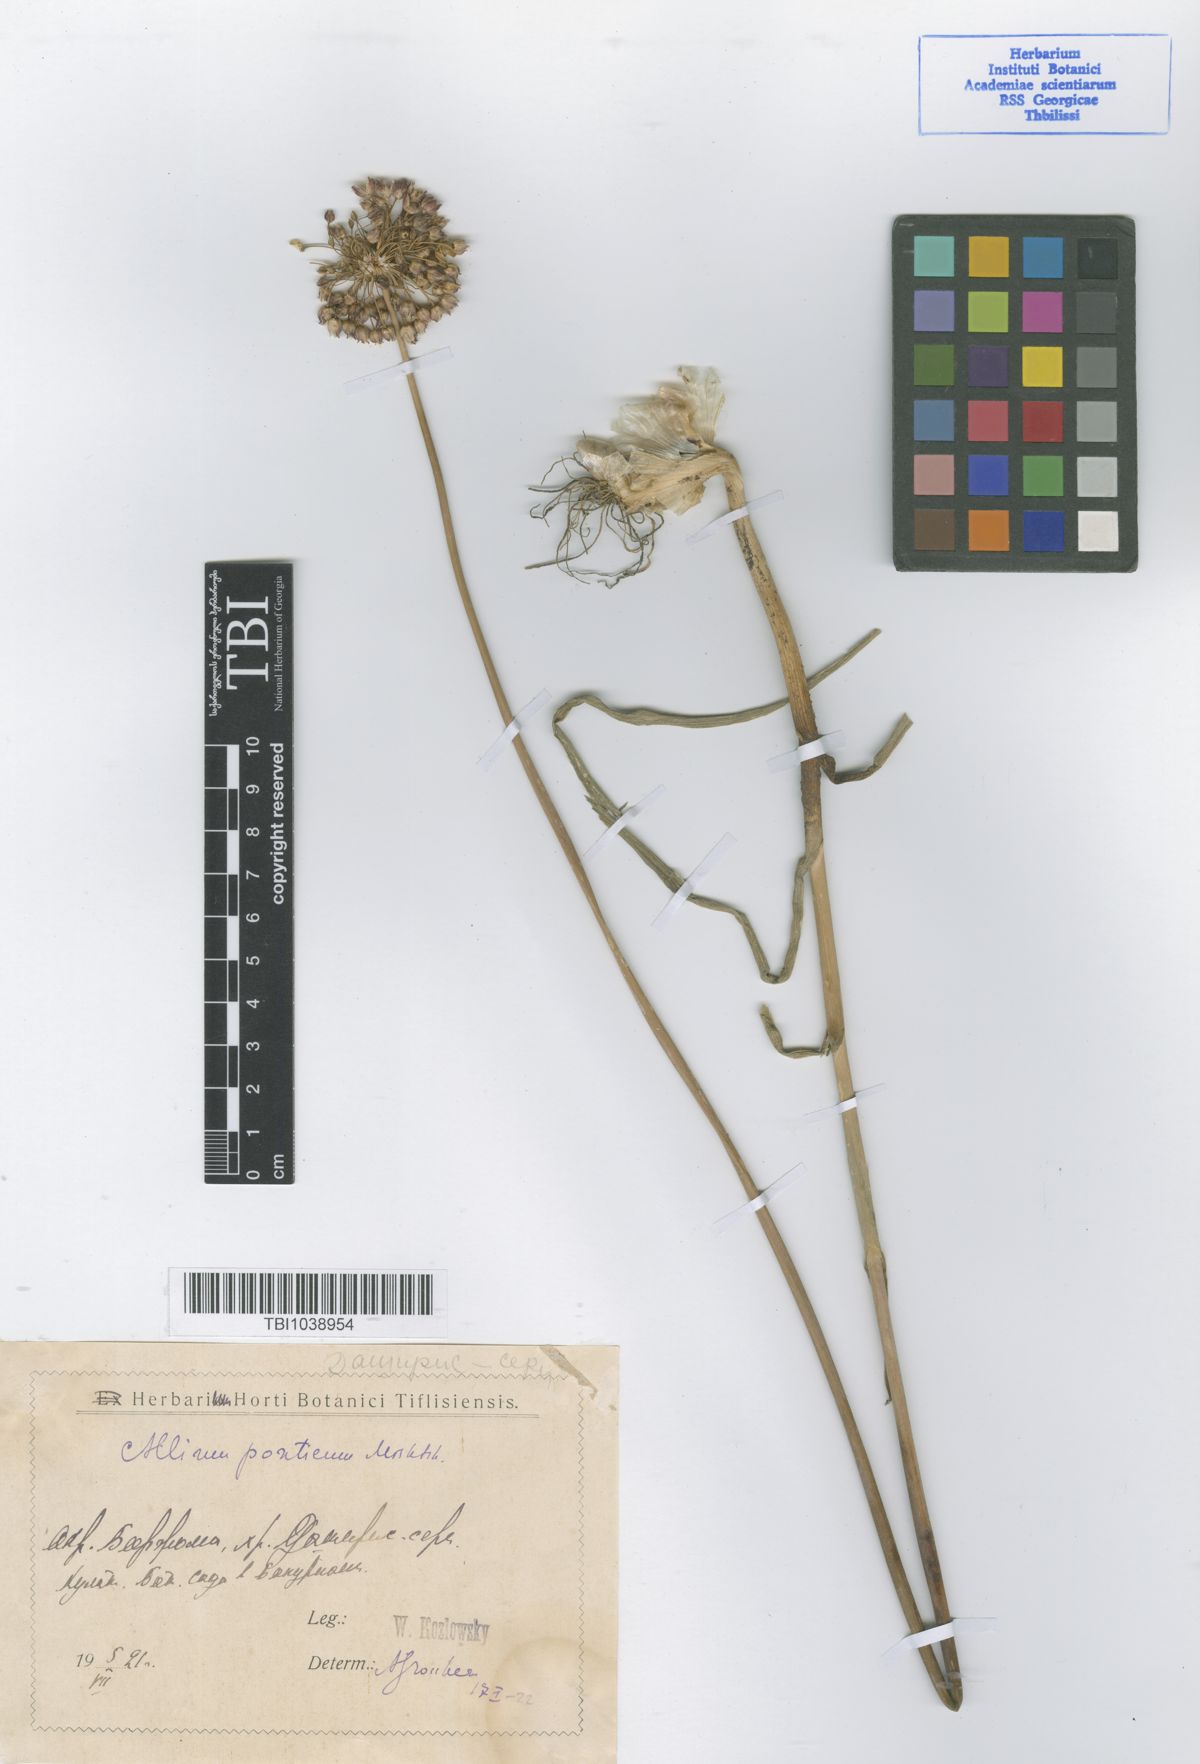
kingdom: Plantae
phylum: Tracheophyta
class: Liliopsida
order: Asparagales
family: Amaryllidaceae
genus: Allium
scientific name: Allium ponticum
